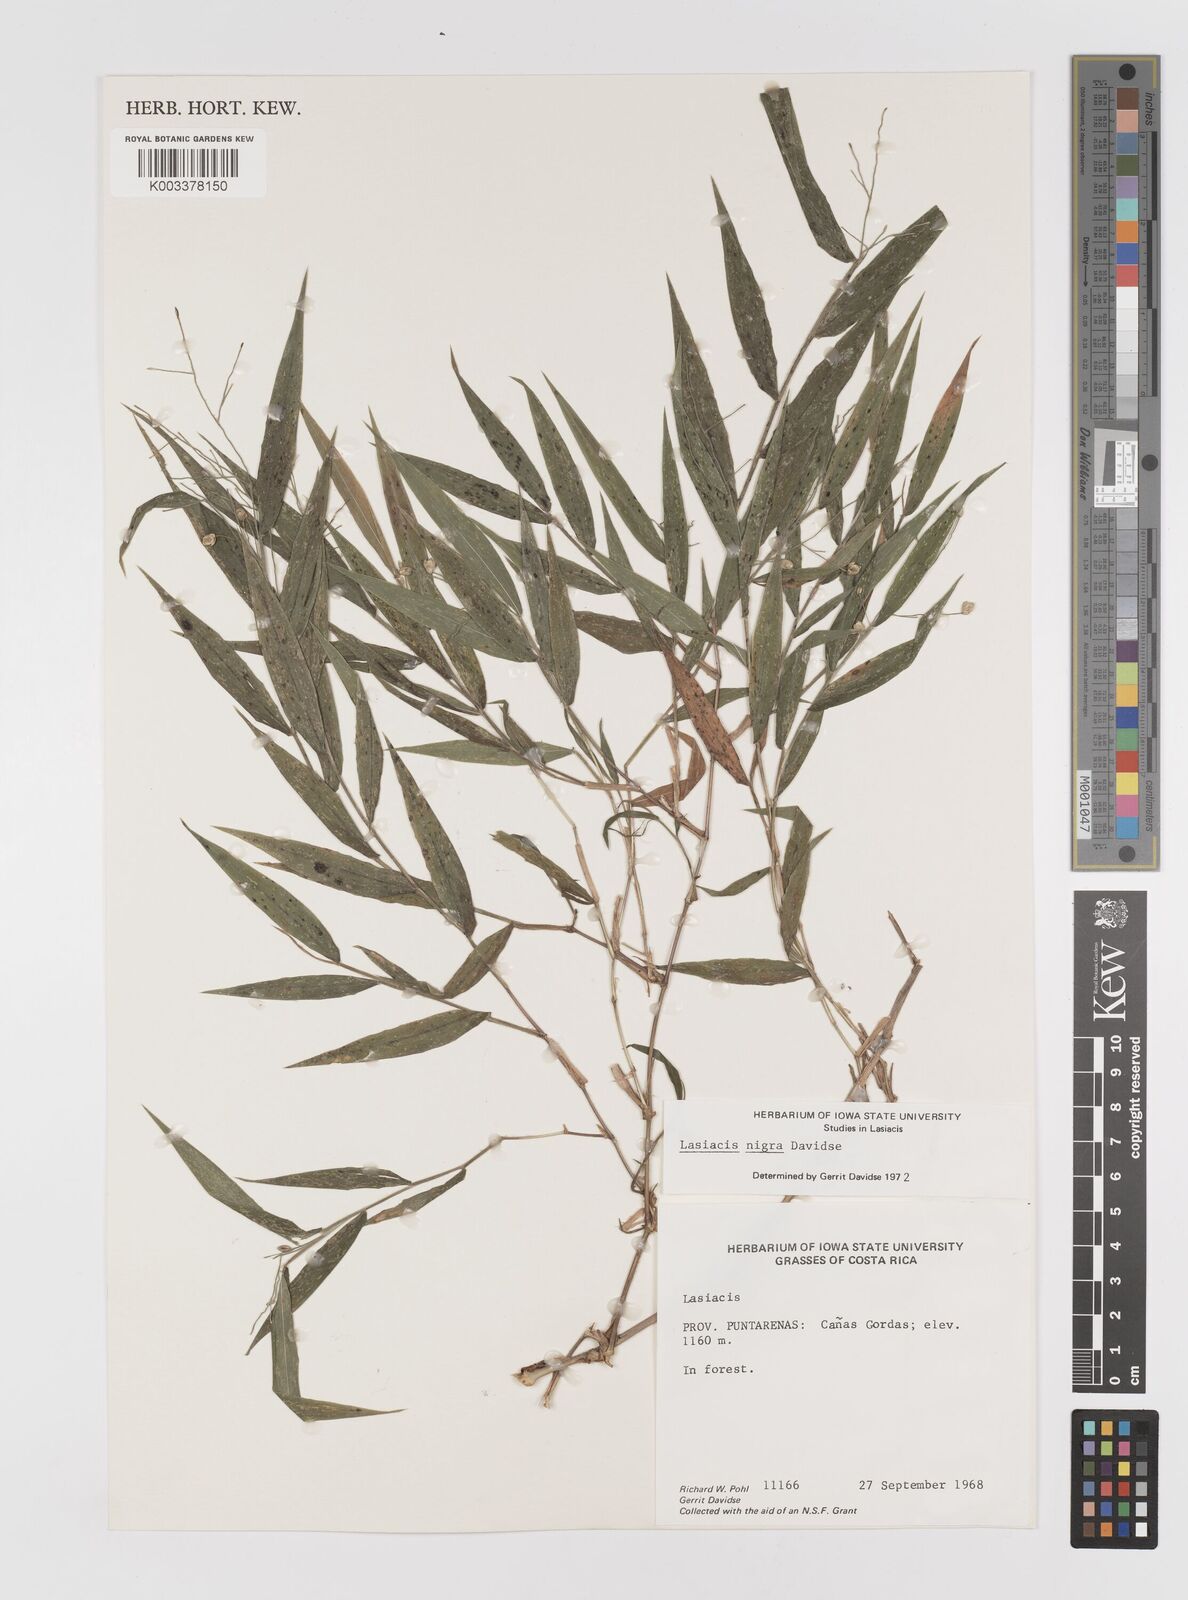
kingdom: Plantae
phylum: Tracheophyta
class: Liliopsida
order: Poales
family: Poaceae
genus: Lasiacis
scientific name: Lasiacis nigra
